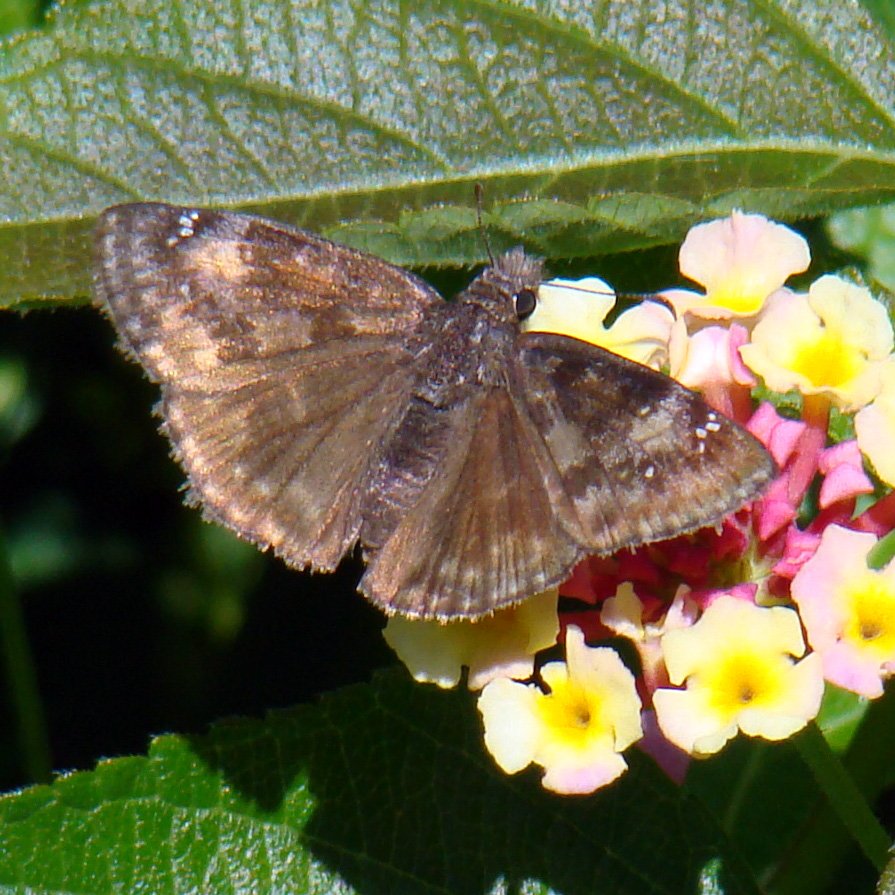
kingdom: Animalia
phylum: Arthropoda
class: Insecta
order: Lepidoptera
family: Hesperiidae
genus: Gesta
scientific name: Gesta
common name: Wild Indigo Duskywing
